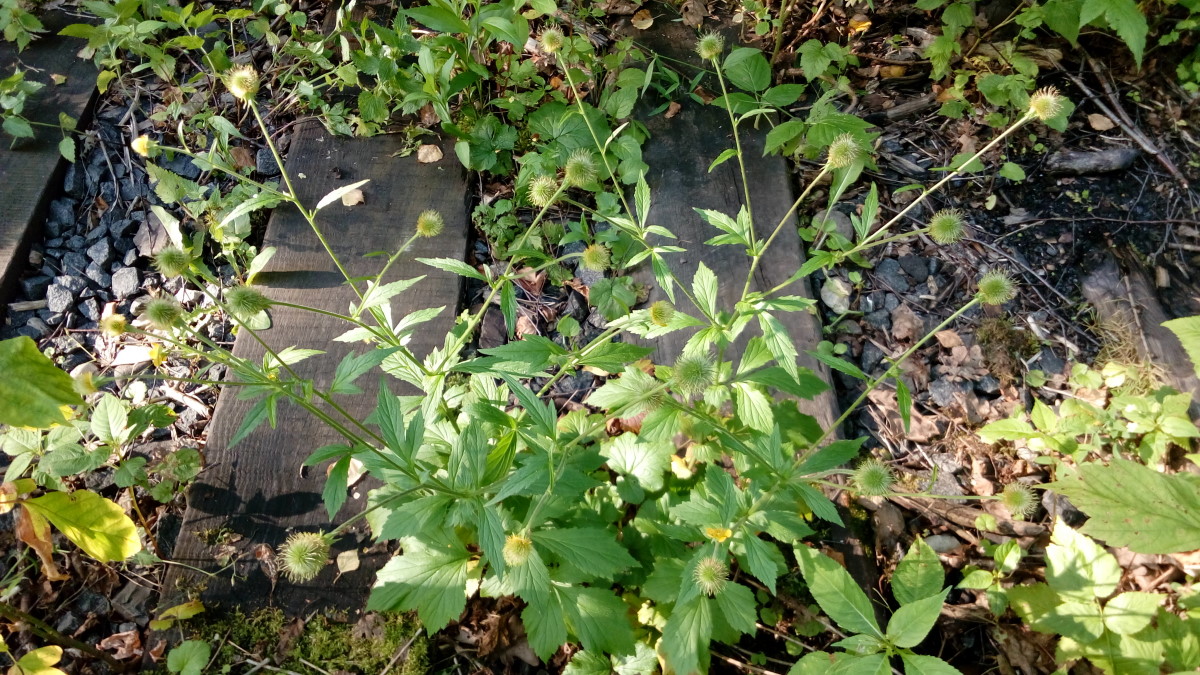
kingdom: Plantae
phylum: Tracheophyta
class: Magnoliopsida
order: Rosales
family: Rosaceae
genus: Geum
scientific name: Geum aleppicum
